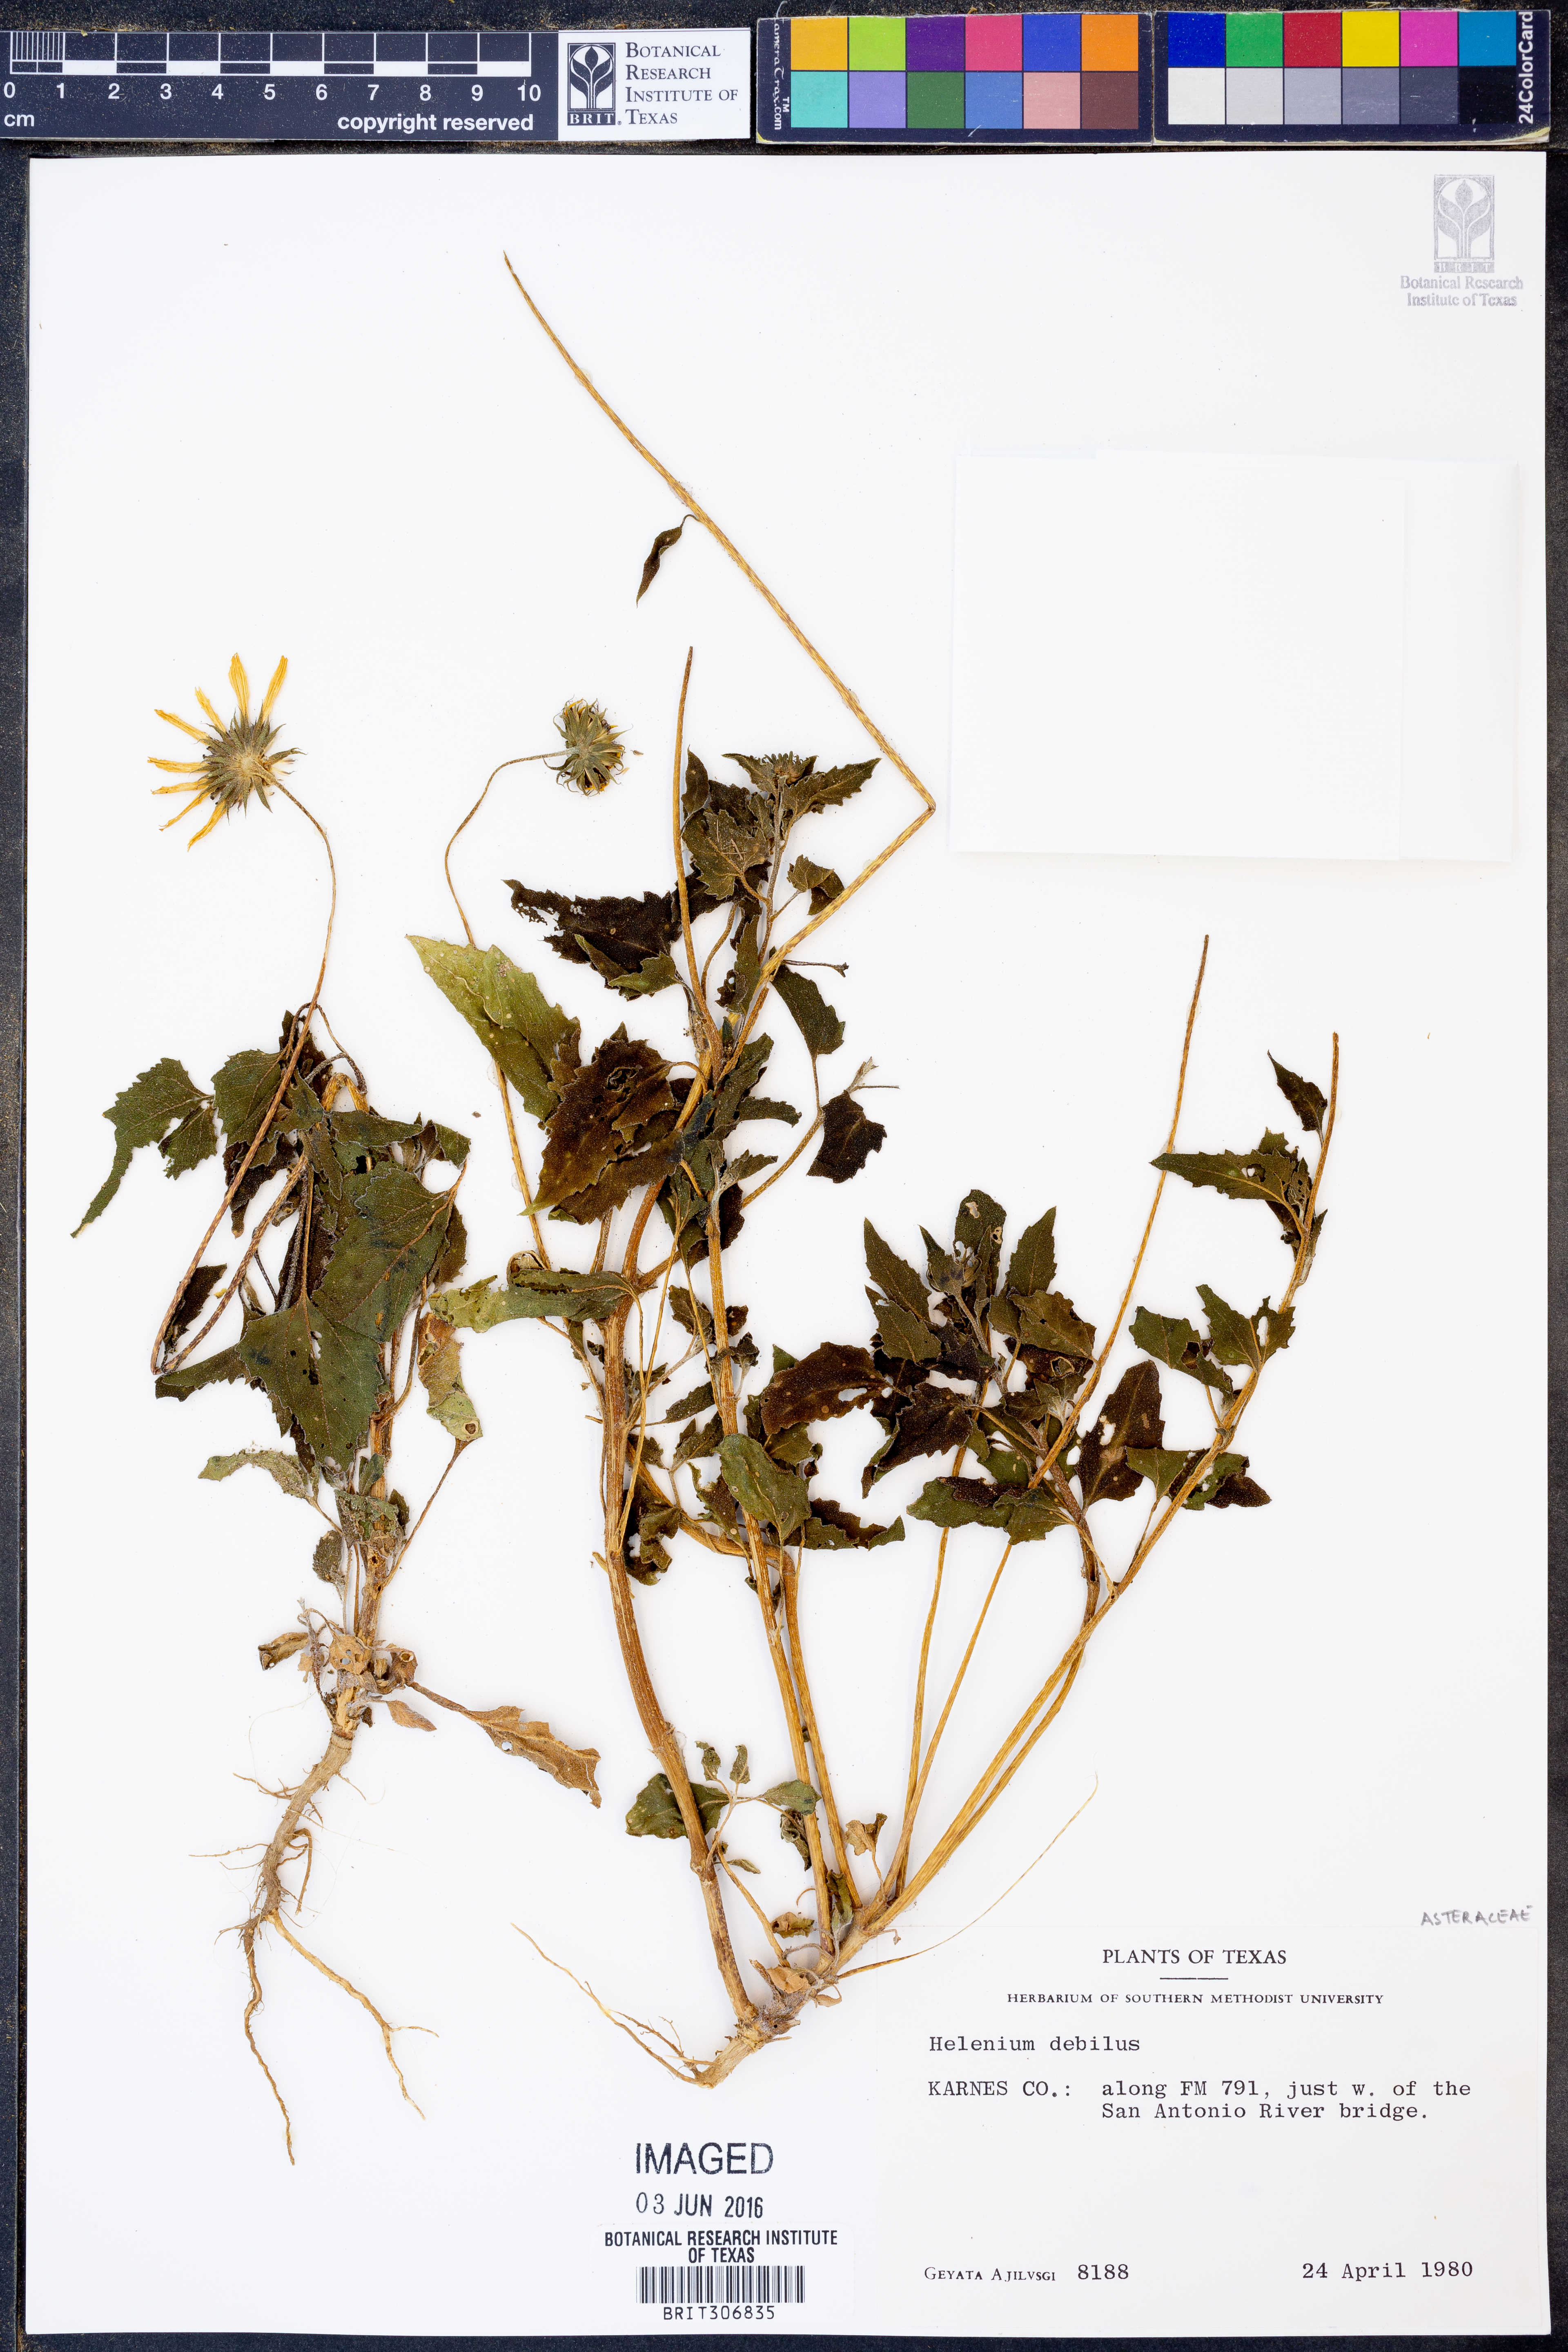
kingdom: Plantae
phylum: Tracheophyta
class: Magnoliopsida
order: Asterales
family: Asteraceae
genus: Helenium
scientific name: Helenium
